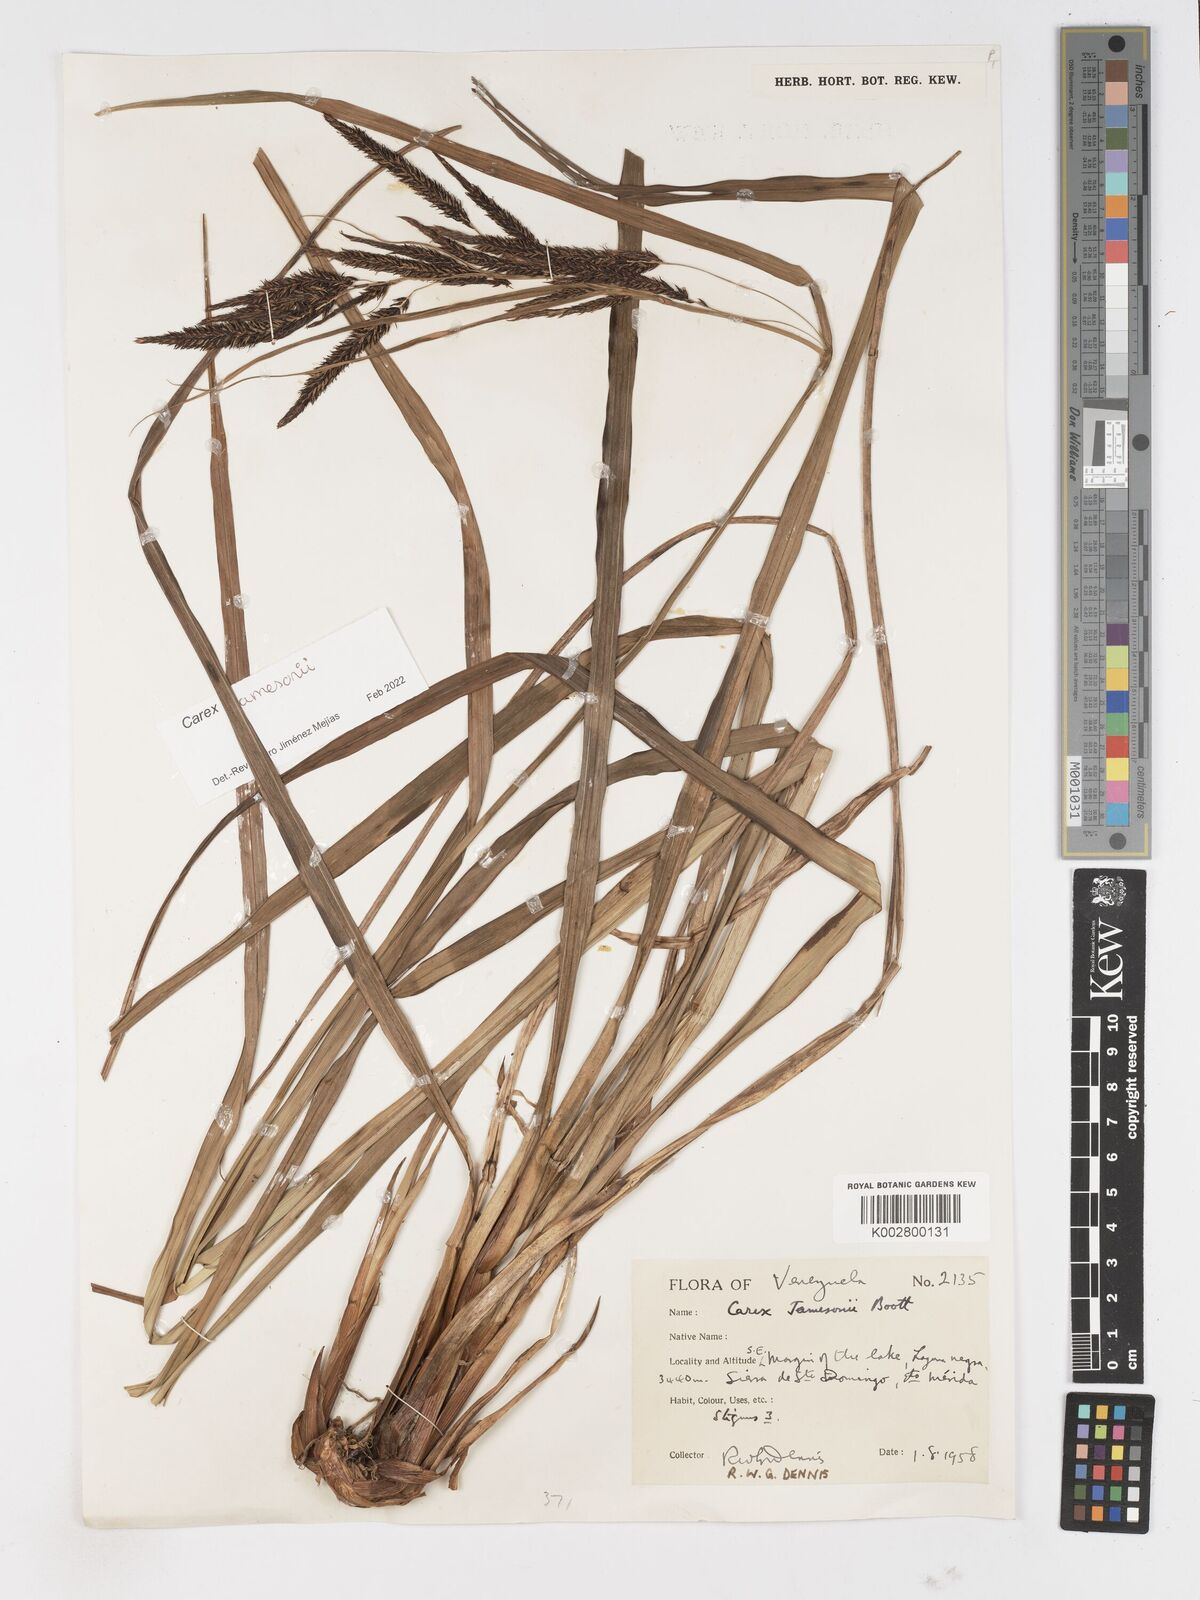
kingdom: Plantae
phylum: Tracheophyta
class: Liliopsida
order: Poales
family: Cyperaceae
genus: Carex
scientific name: Carex jamesonii
